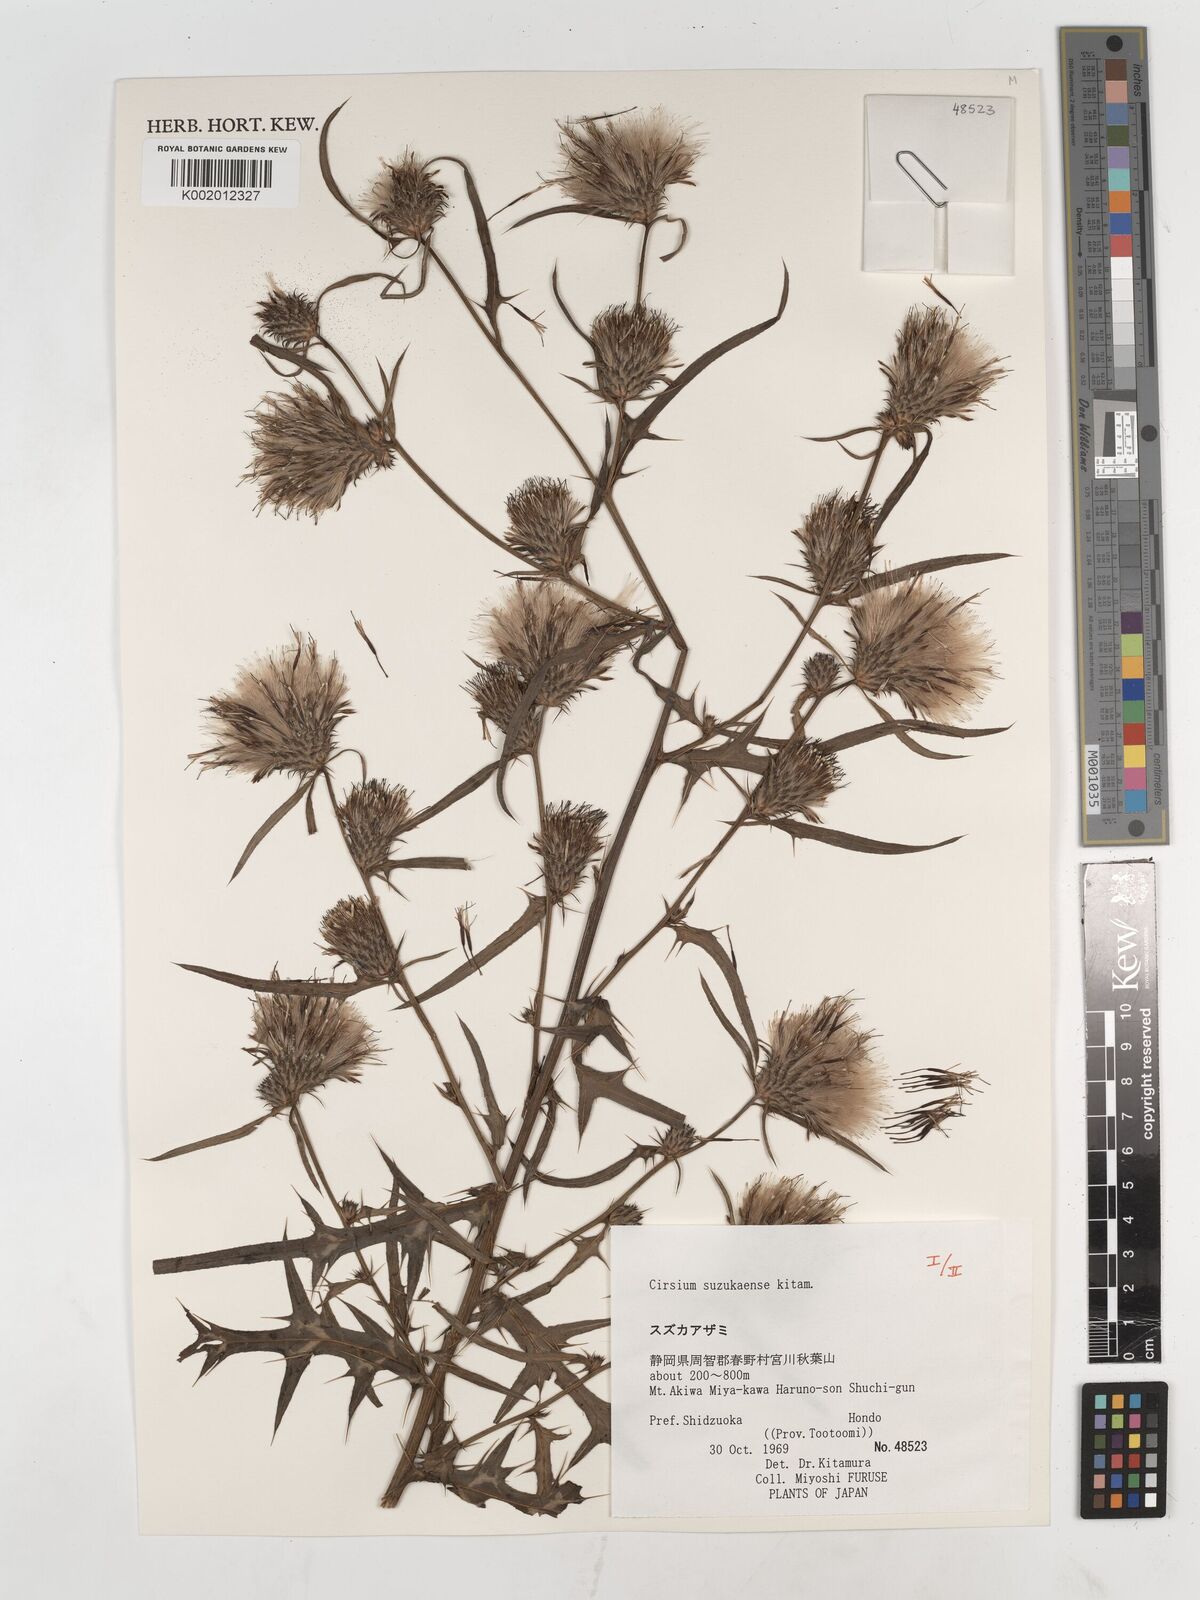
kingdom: Plantae
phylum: Tracheophyta
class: Magnoliopsida
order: Asterales
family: Asteraceae
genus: Cirsium
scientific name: Cirsium suzukaense
